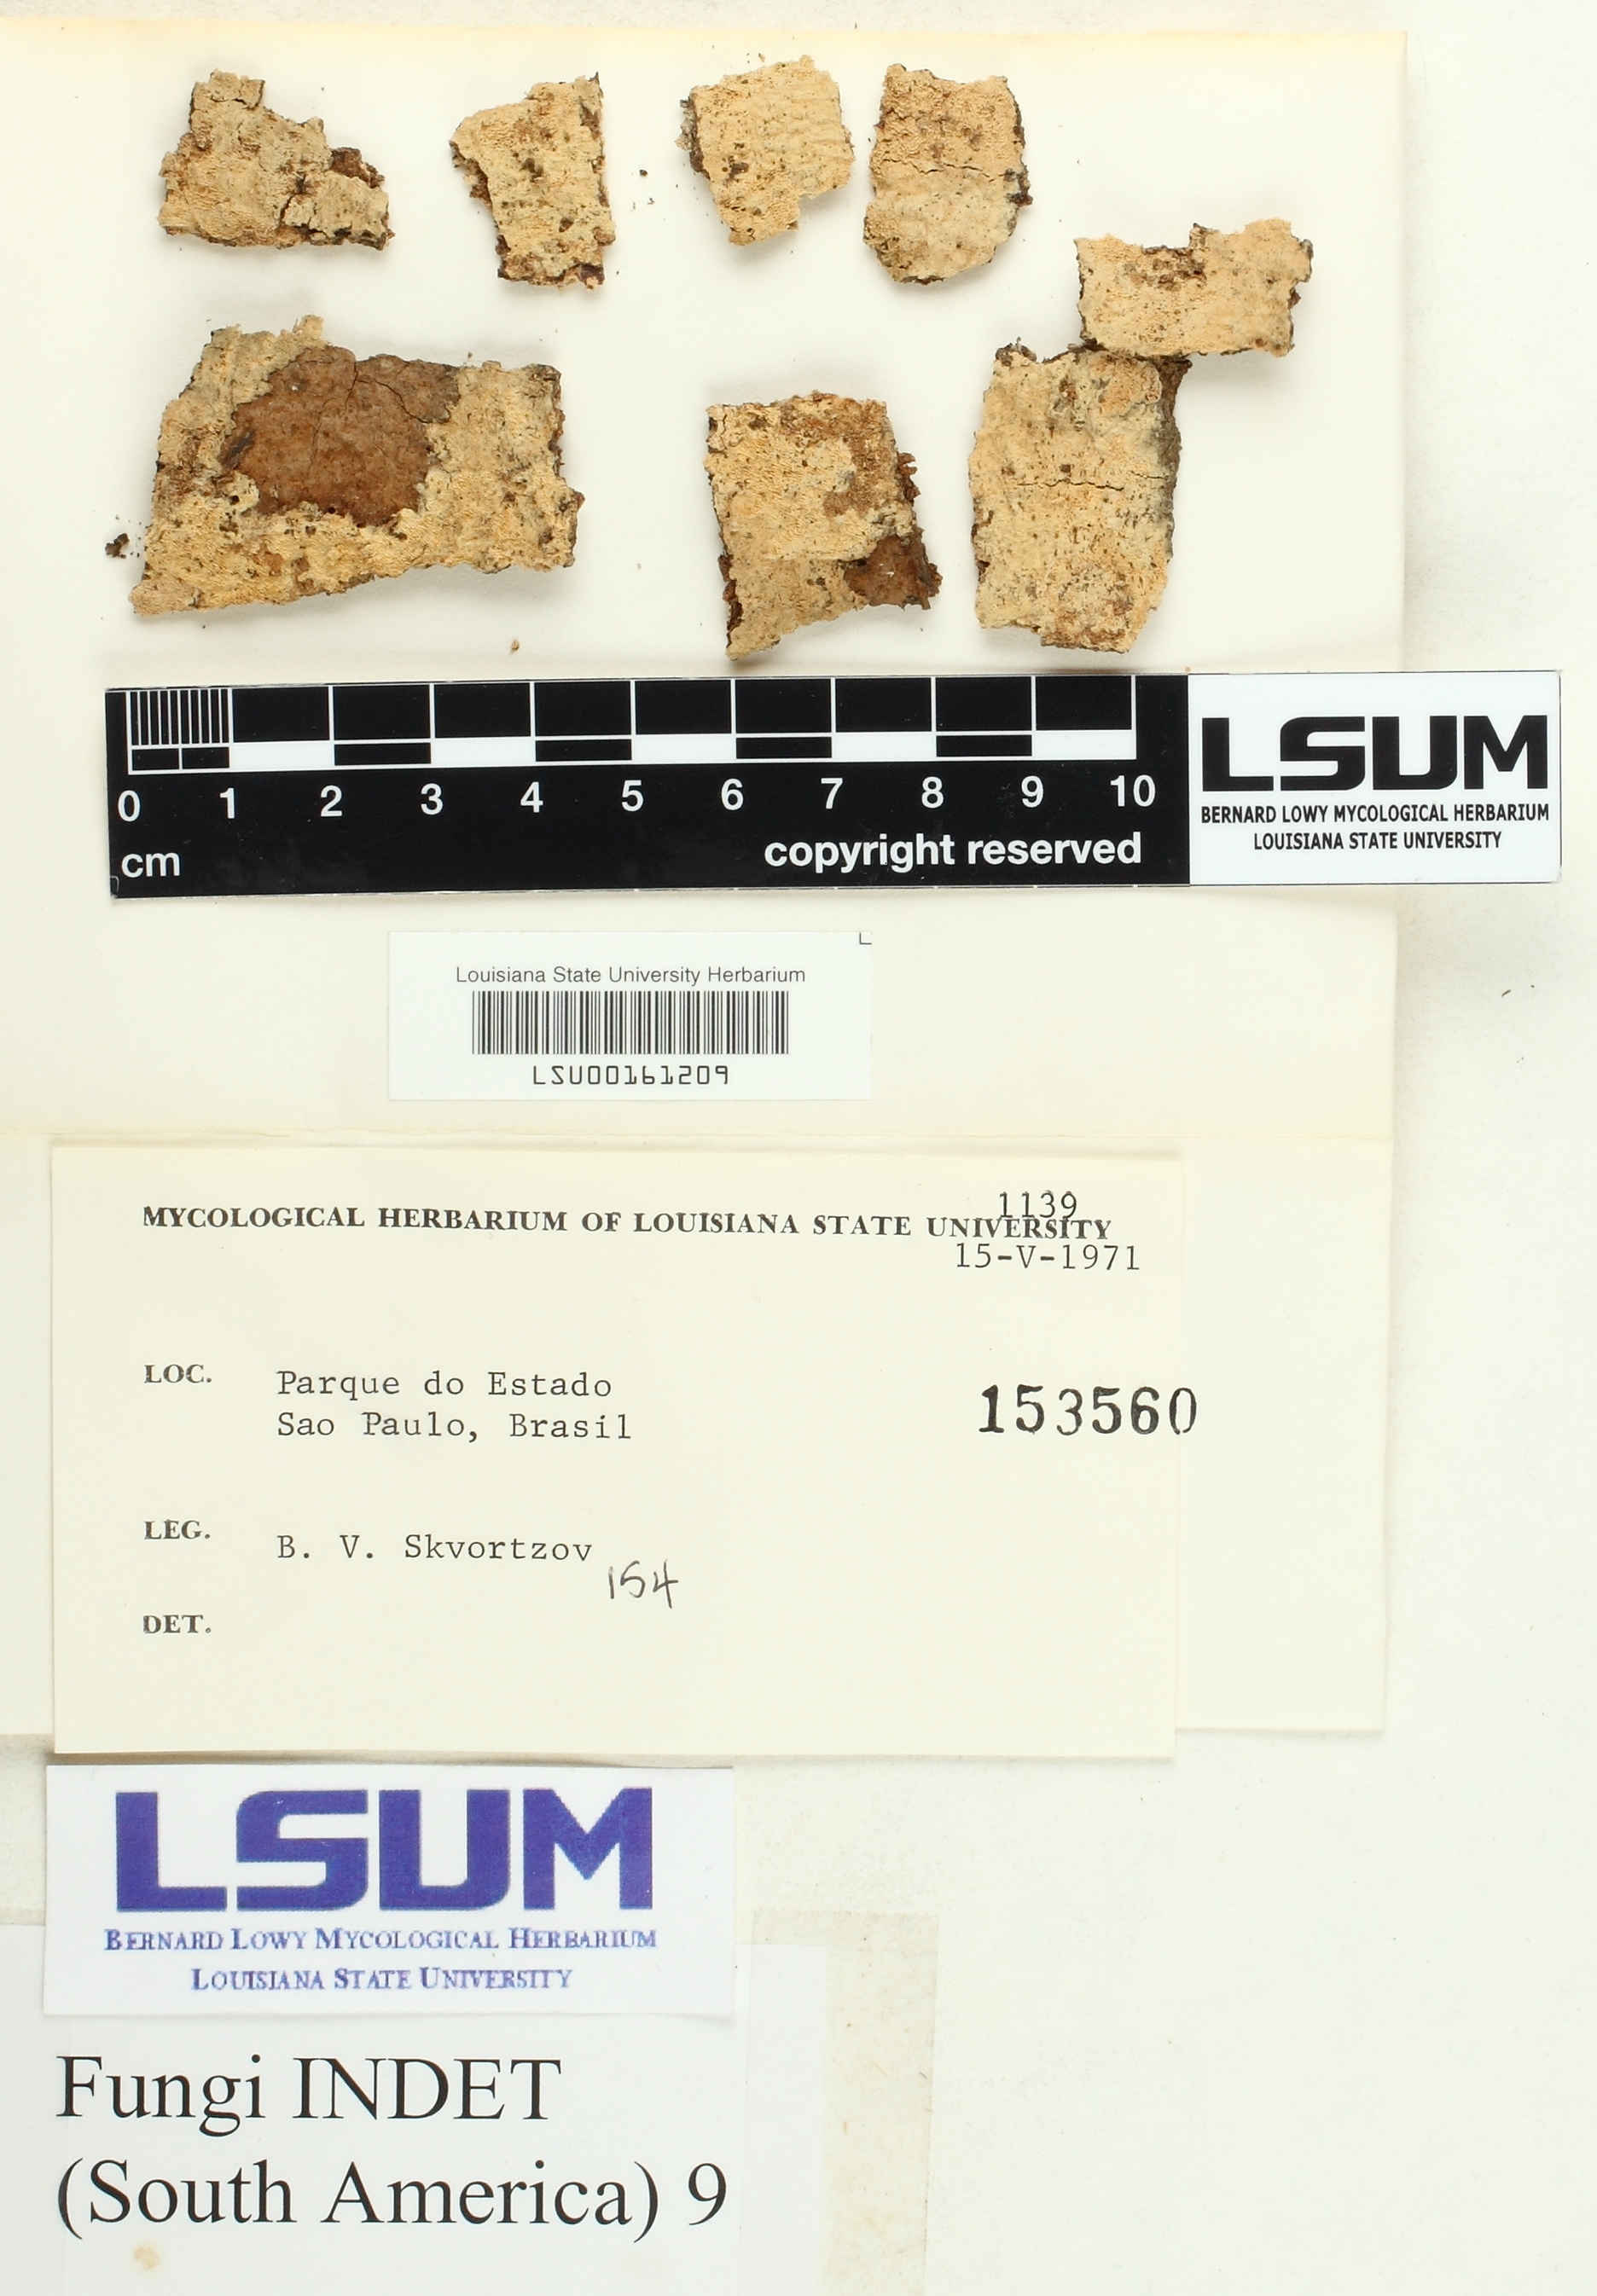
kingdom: Fungi
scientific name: Fungi
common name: Fungi
